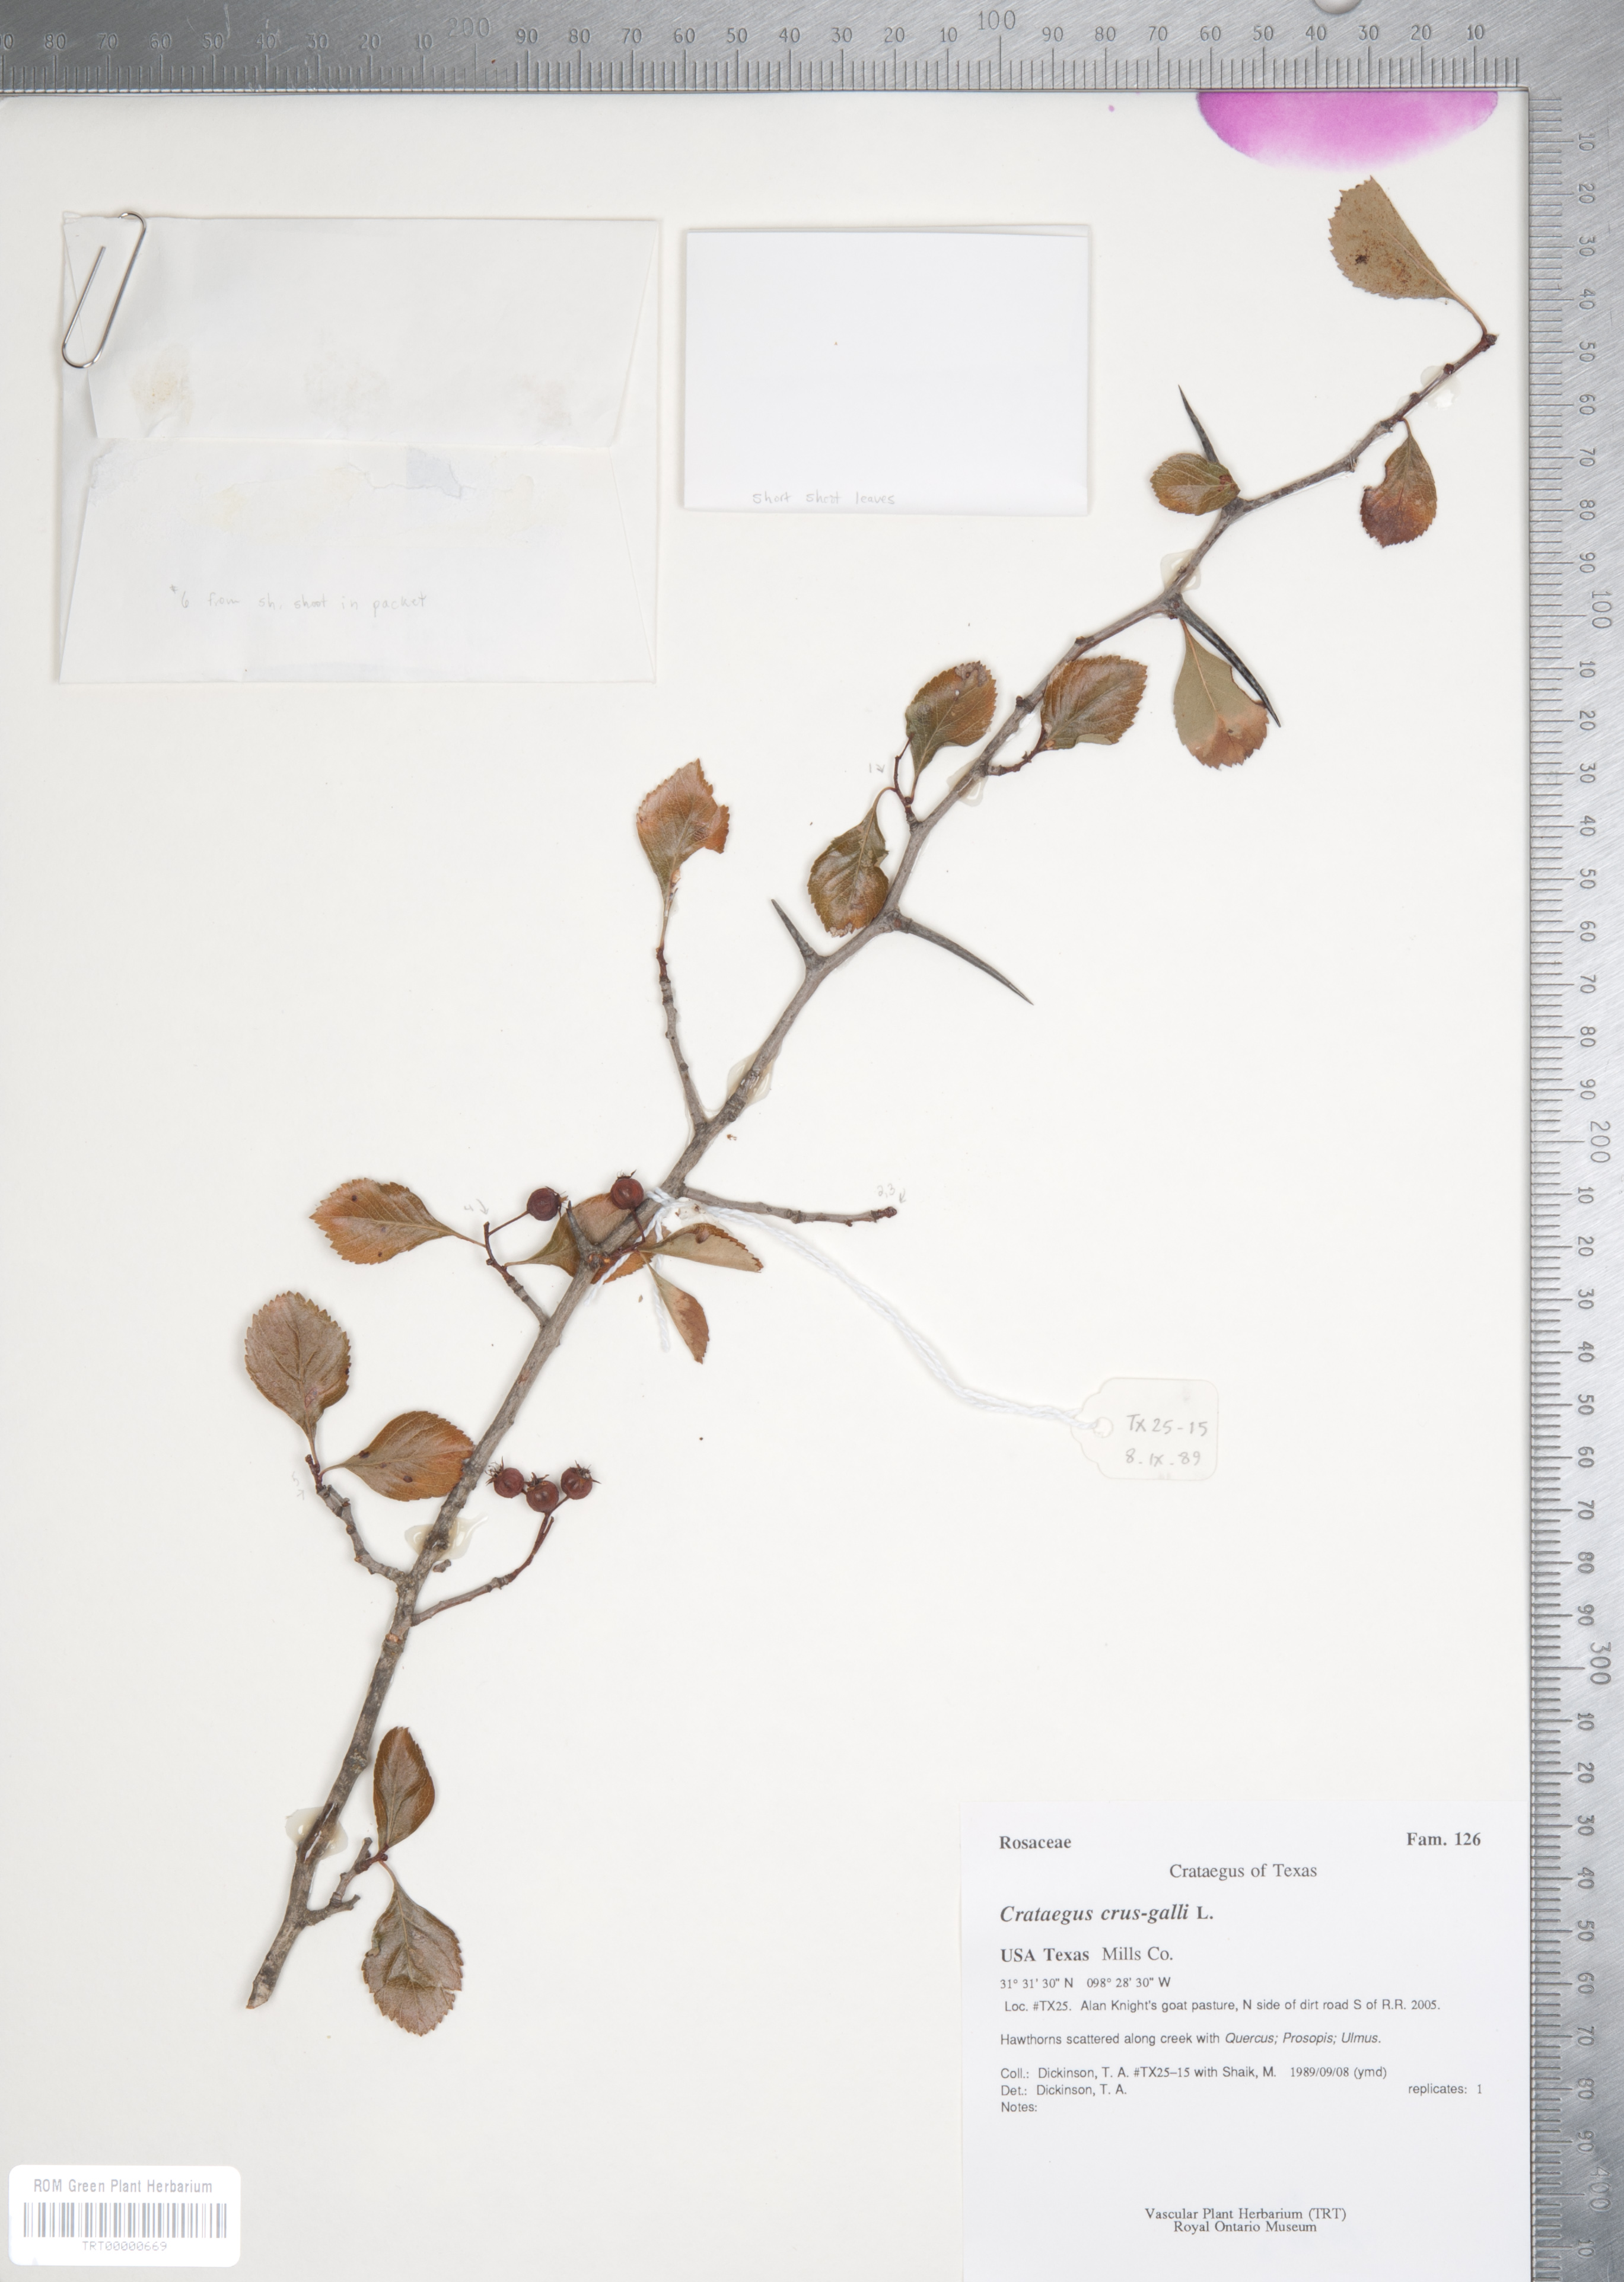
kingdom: Plantae
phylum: Tracheophyta
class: Magnoliopsida
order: Rosales
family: Rosaceae
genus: Crataegus
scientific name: Crataegus crus-galli
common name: Cockspurthorn
